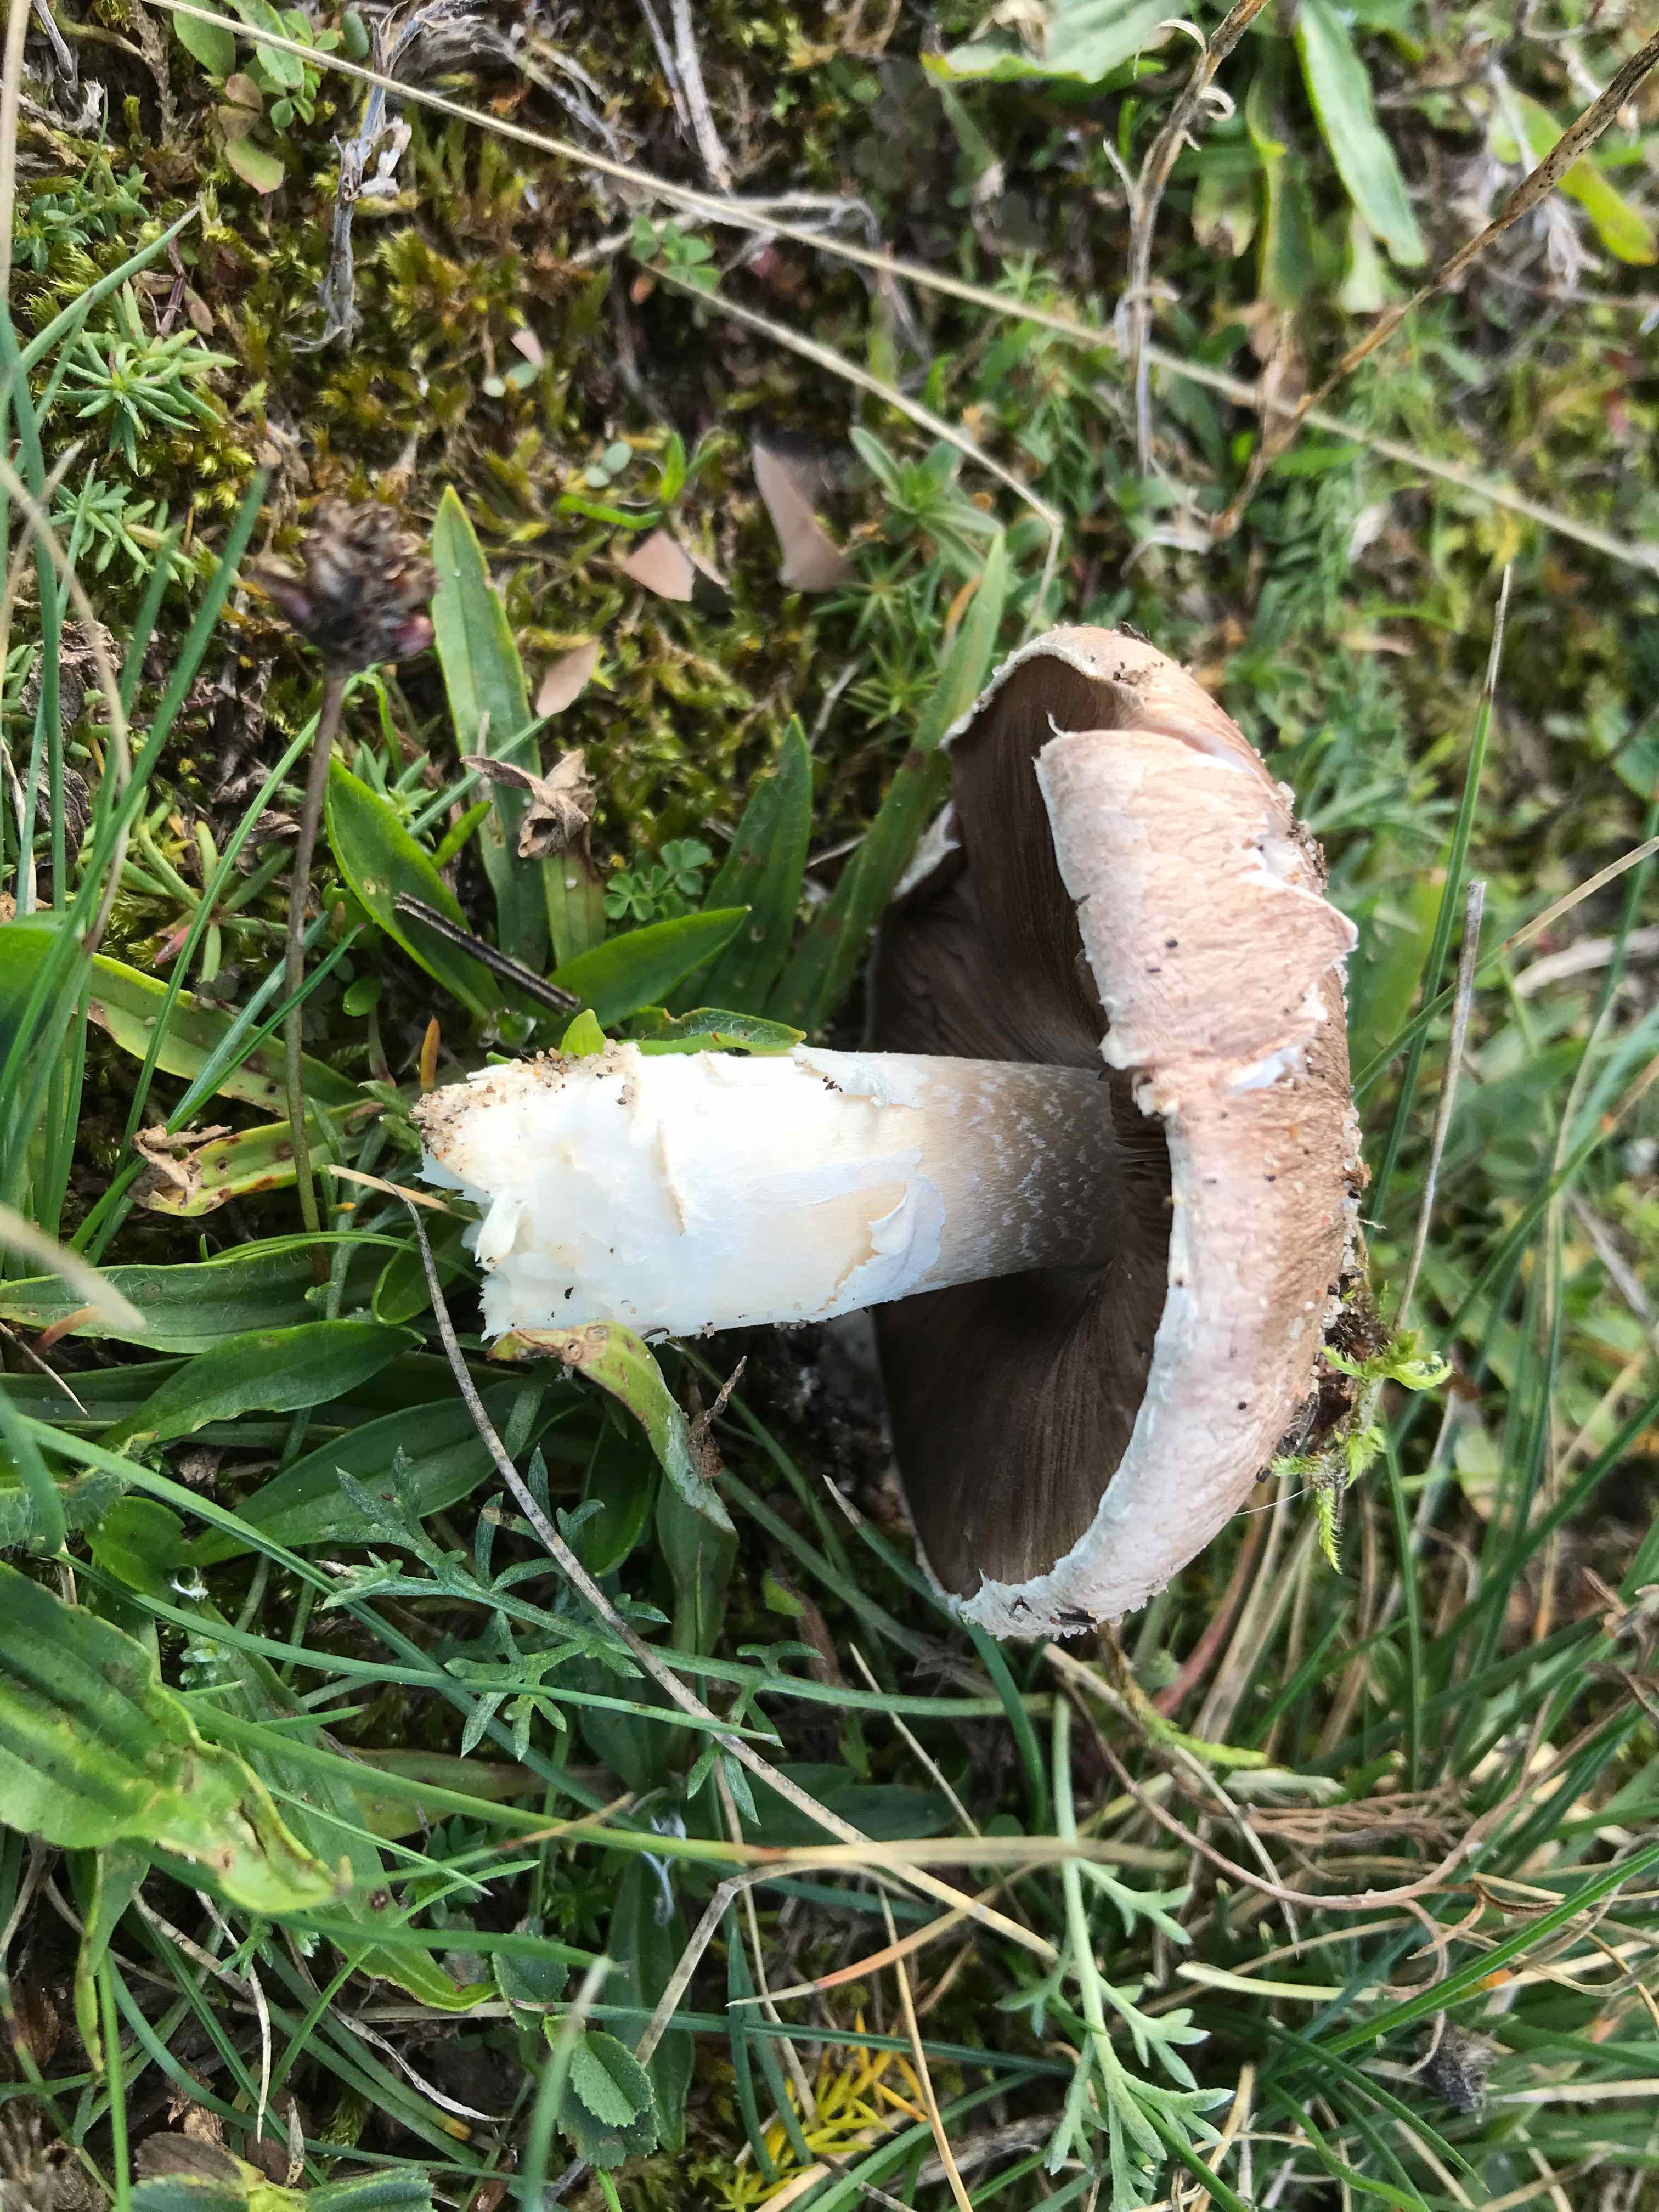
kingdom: Fungi
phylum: Basidiomycota
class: Agaricomycetes
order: Agaricales
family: Agaricaceae
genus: Agaricus
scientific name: Agaricus cupreobrunneus
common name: kobberbrun champignon
